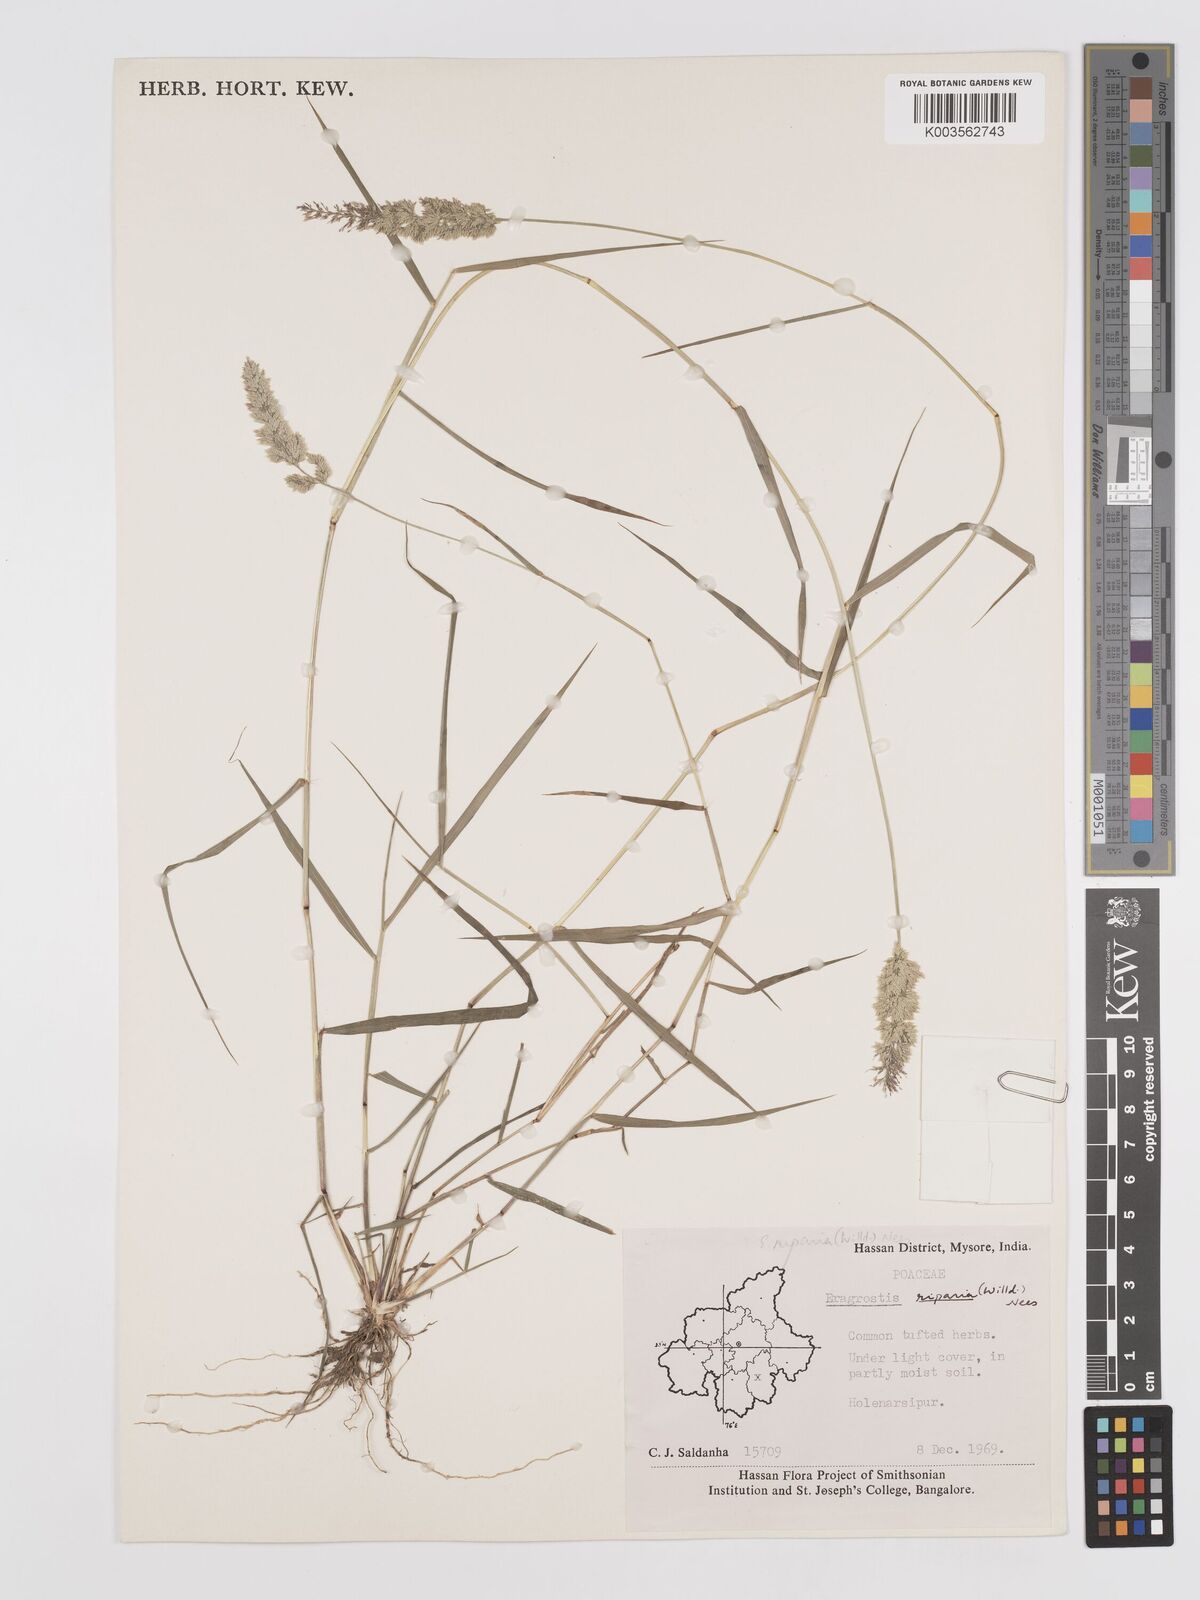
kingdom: Plantae
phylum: Tracheophyta
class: Liliopsida
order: Poales
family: Poaceae
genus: Eragrostis
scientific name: Eragrostis riparia
